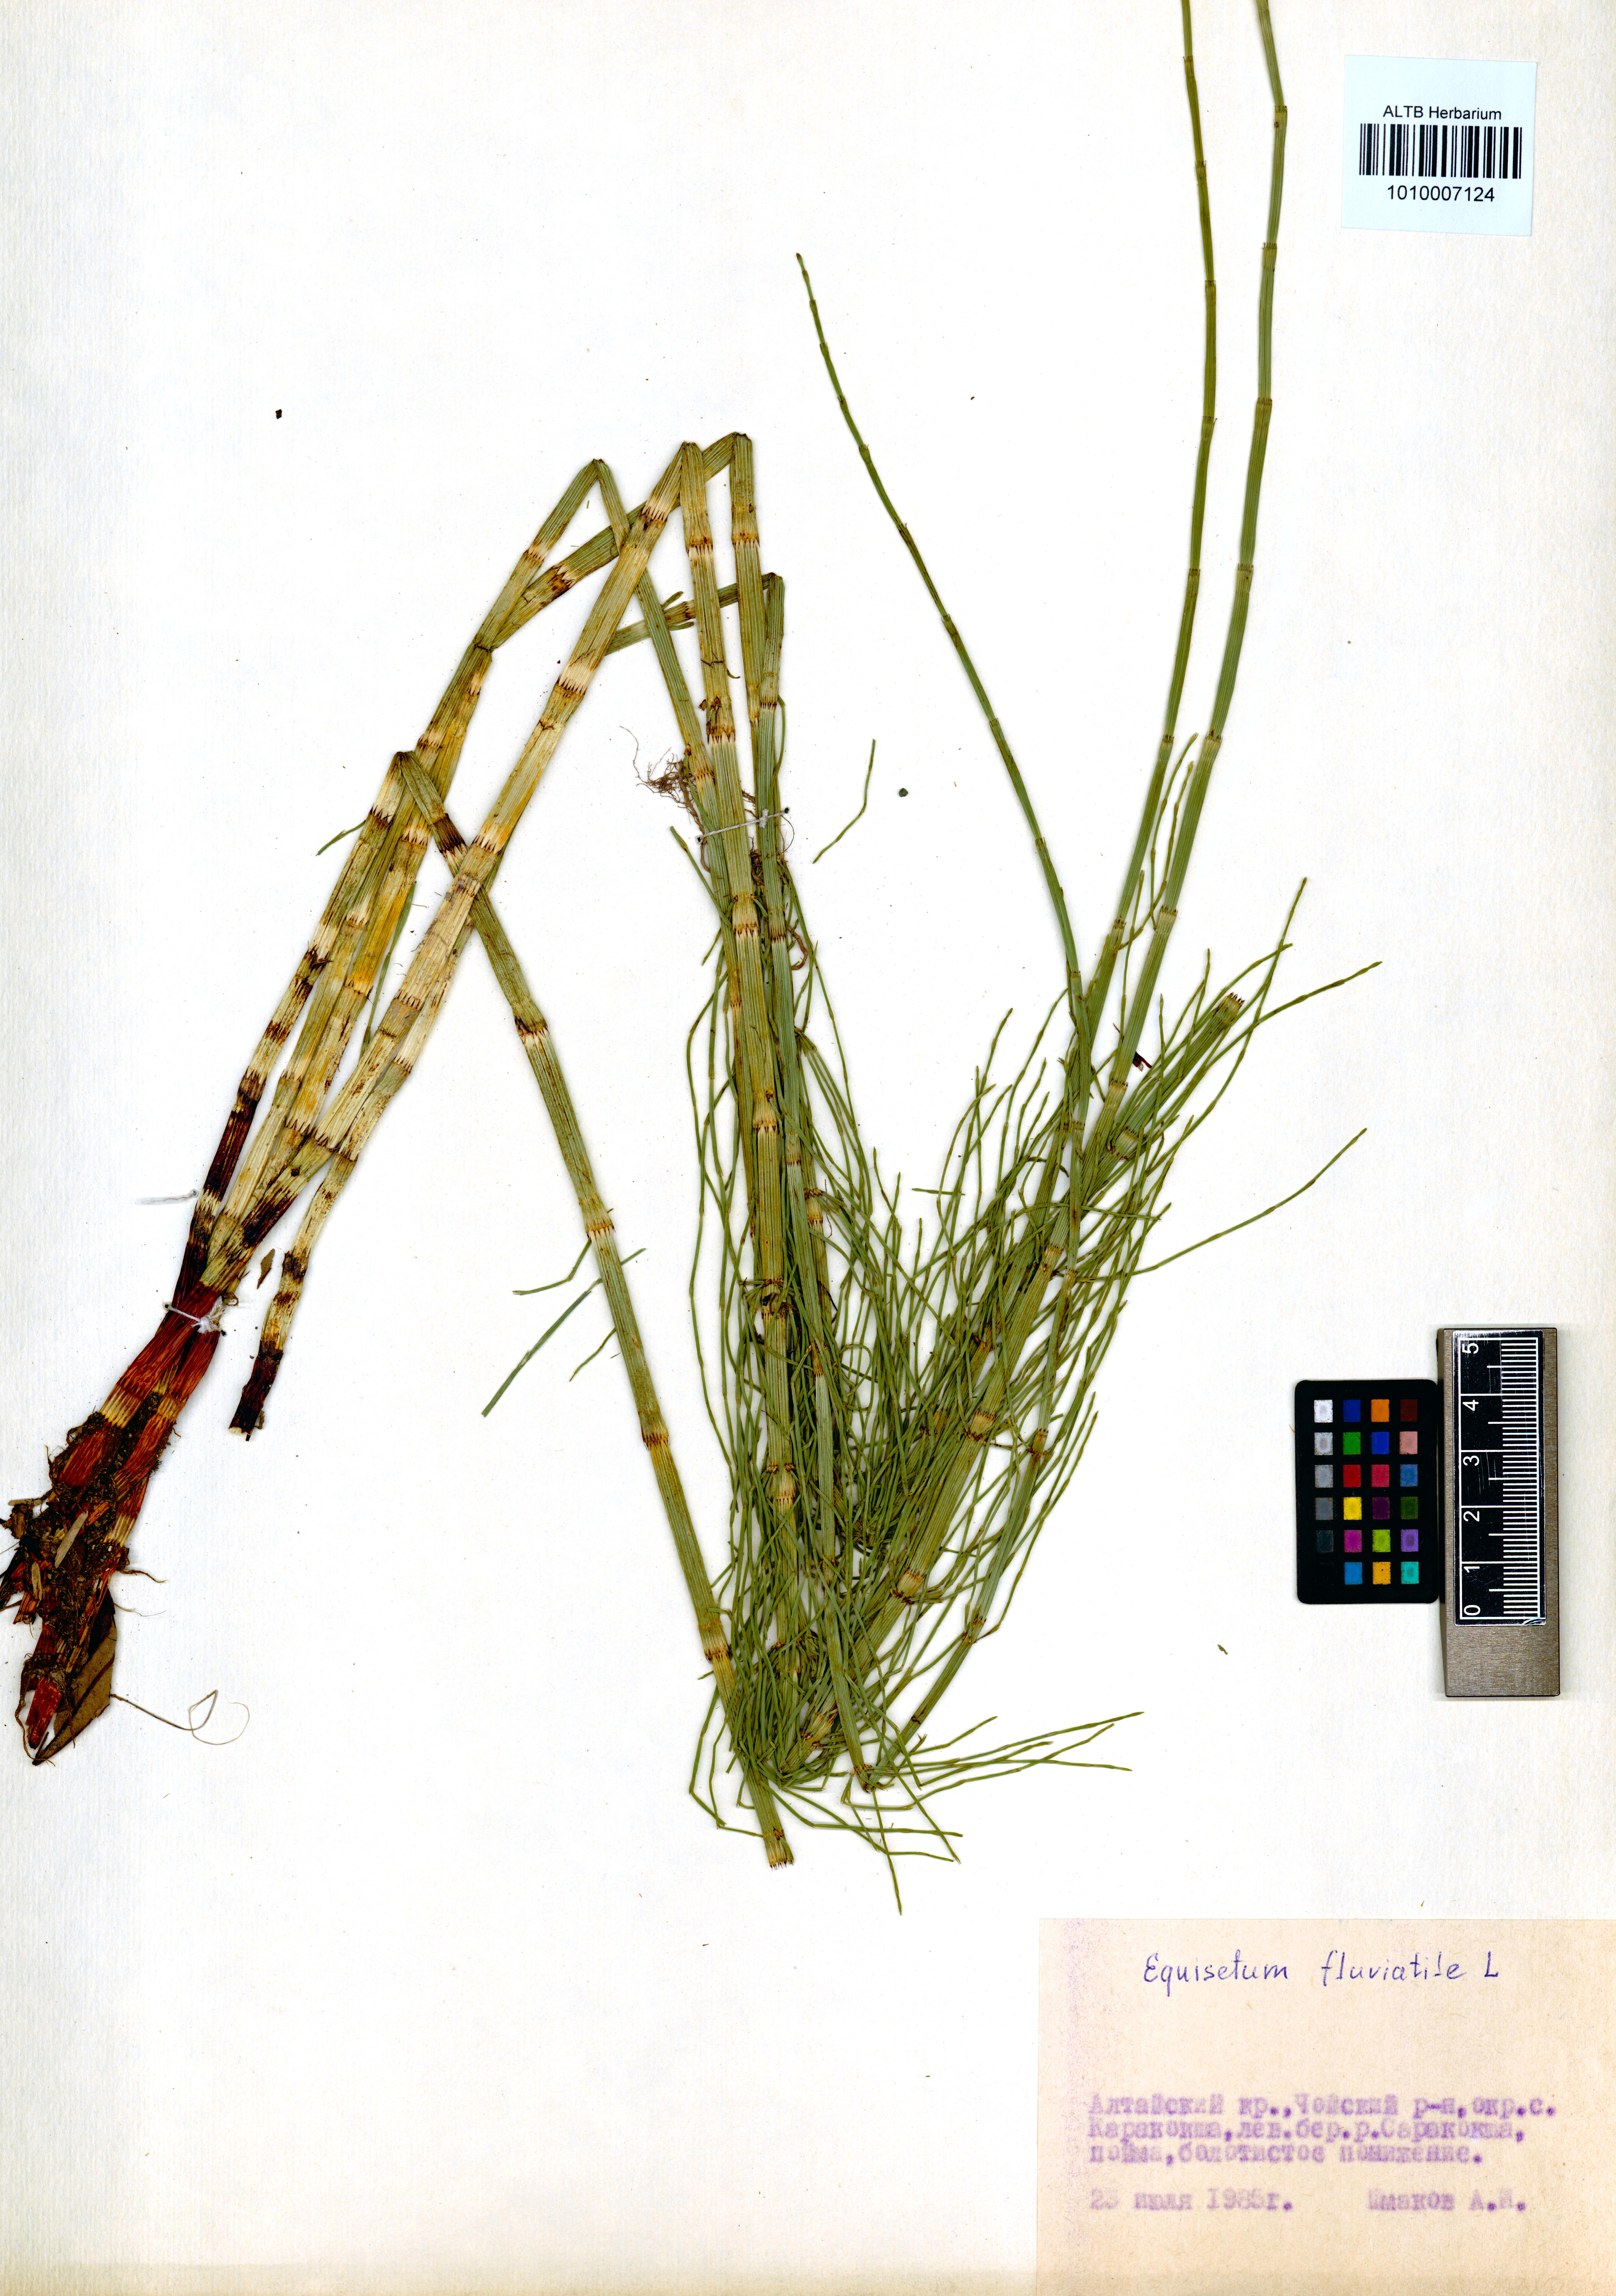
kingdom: Plantae
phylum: Tracheophyta
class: Polypodiopsida
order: Equisetales
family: Equisetaceae
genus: Equisetum
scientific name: Equisetum fluviatile
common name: Water horsetail
